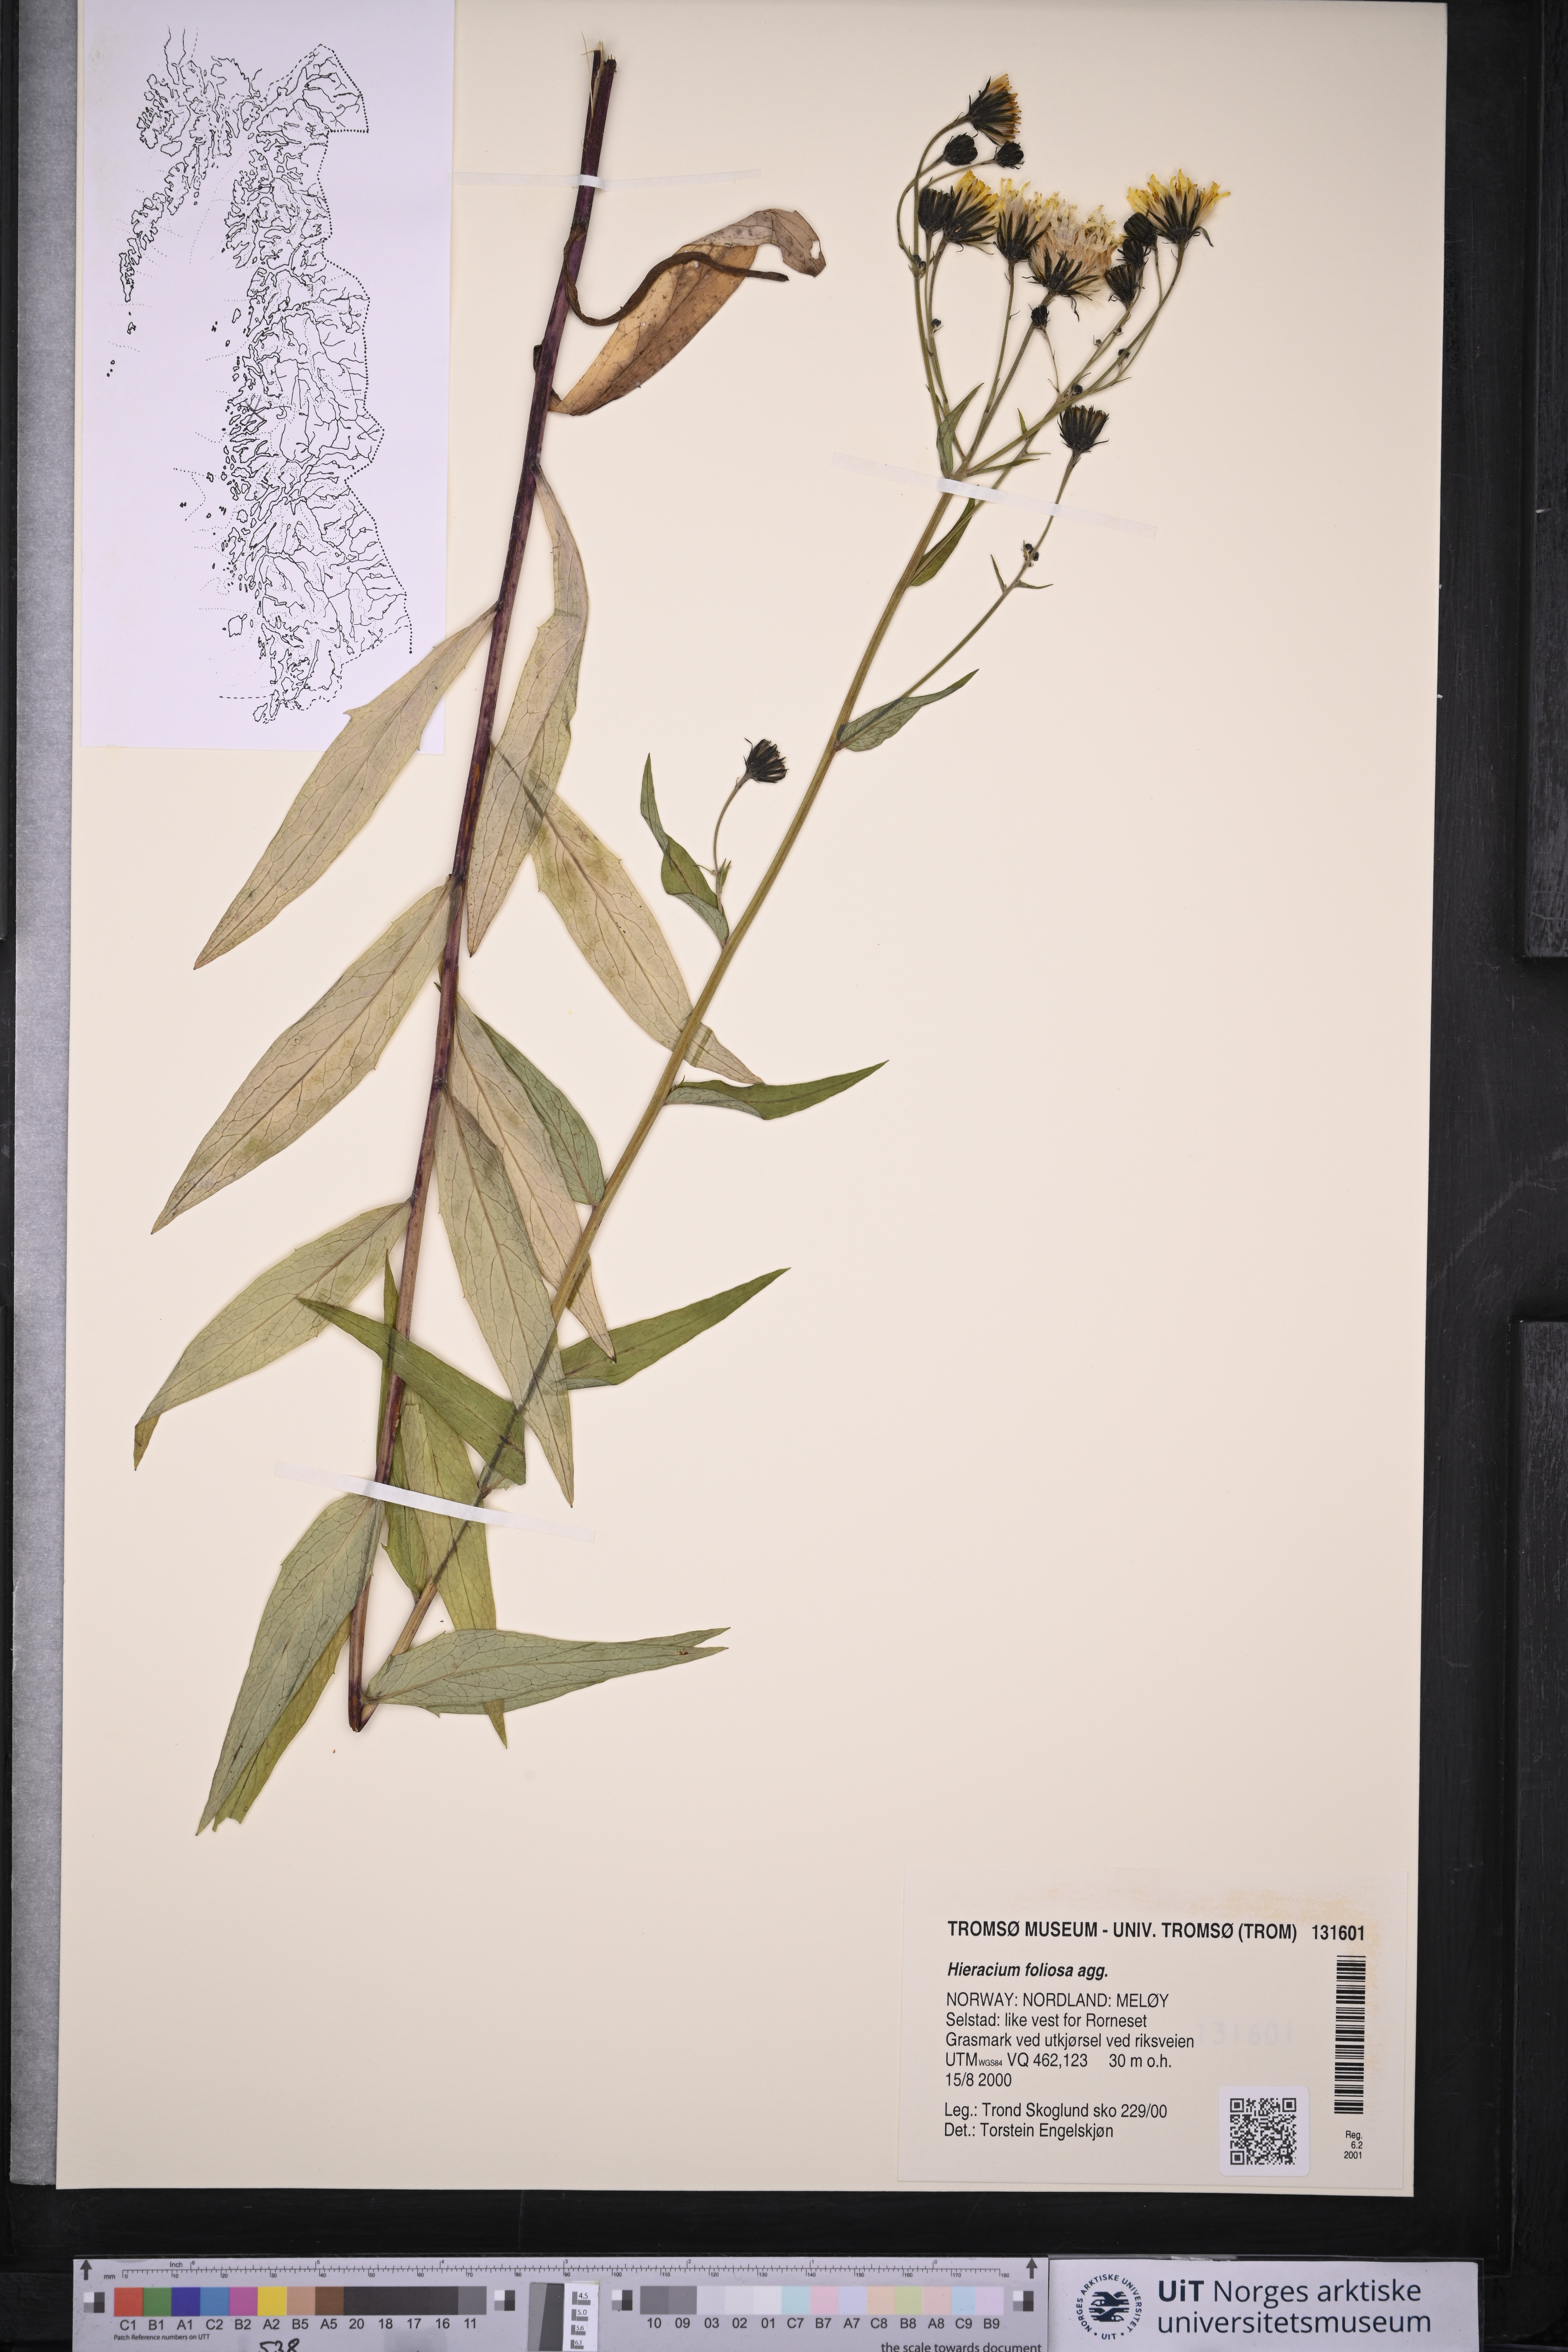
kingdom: Plantae
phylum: Tracheophyta
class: Magnoliopsida
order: Asterales
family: Asteraceae
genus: Hieracium
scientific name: Hieracium
